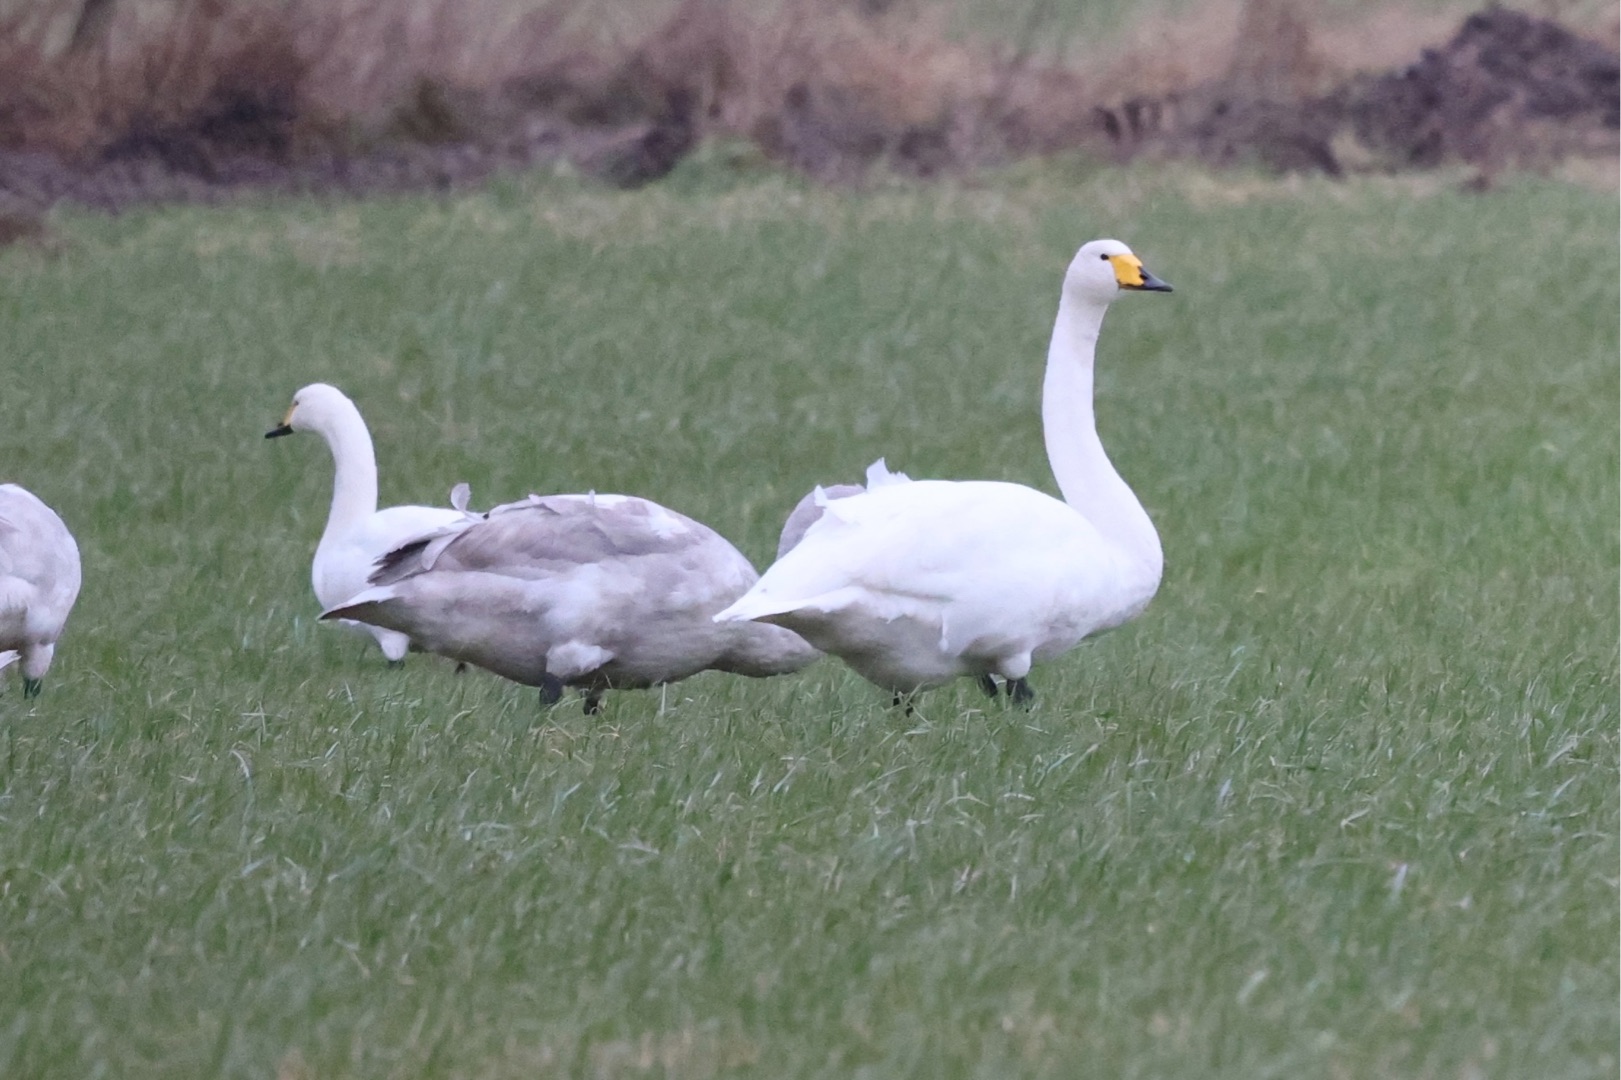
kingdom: Animalia
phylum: Chordata
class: Aves
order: Anseriformes
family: Anatidae
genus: Cygnus
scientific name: Cygnus cygnus
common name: Sangsvane
